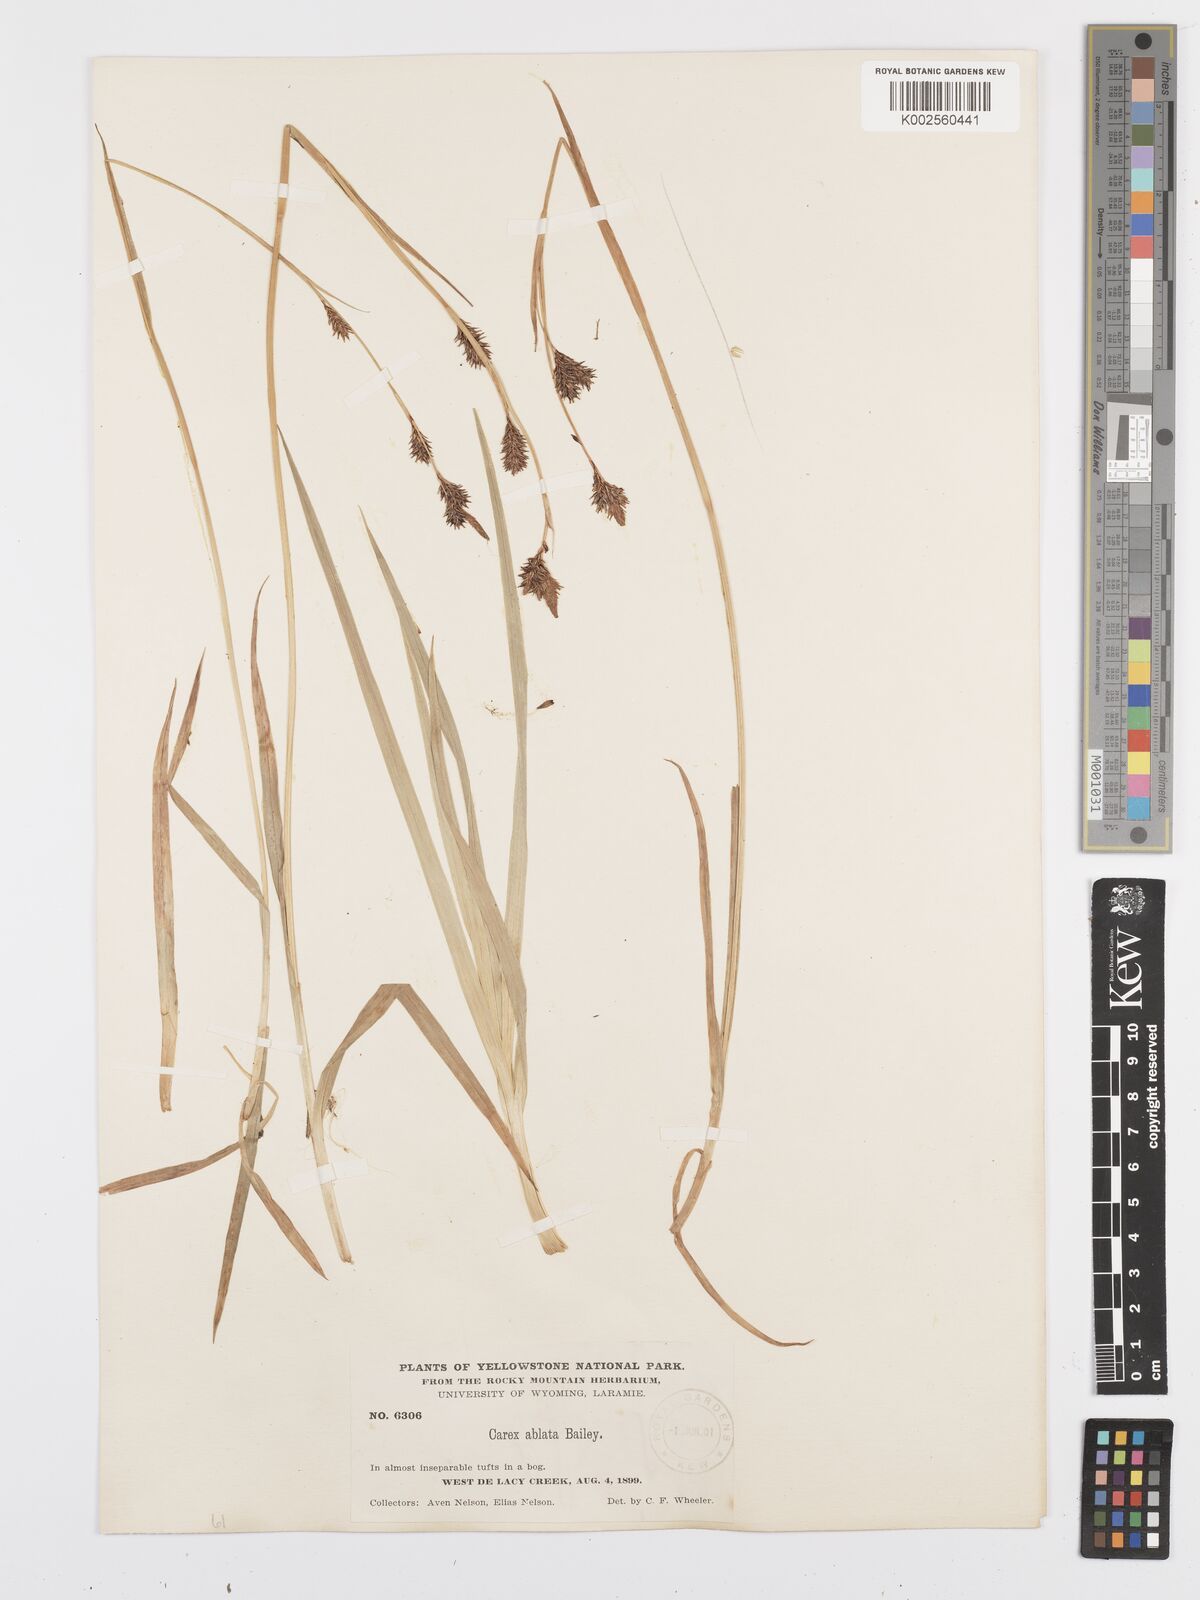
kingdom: Plantae
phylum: Tracheophyta
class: Liliopsida
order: Poales
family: Cyperaceae
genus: Carex
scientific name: Carex luzulina
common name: Spring sedge
